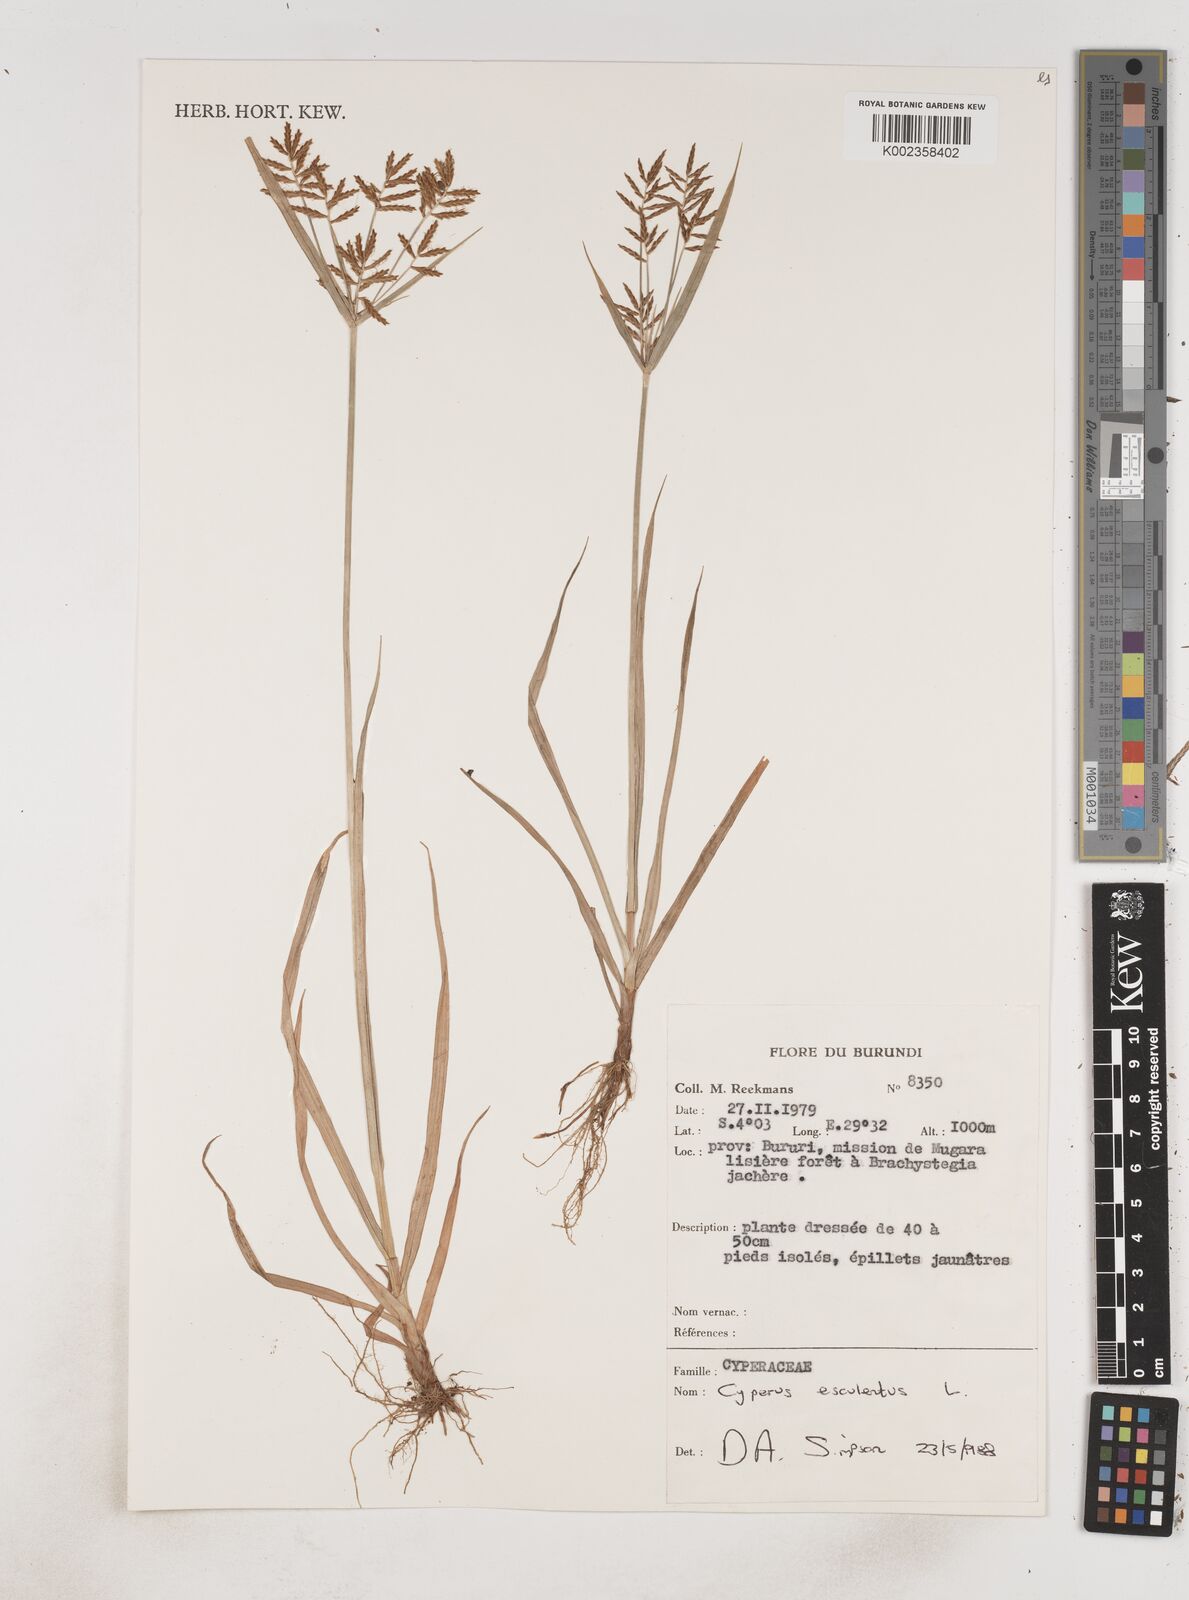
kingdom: Plantae
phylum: Tracheophyta
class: Liliopsida
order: Poales
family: Cyperaceae
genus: Cyperus
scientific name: Cyperus esculentus
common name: Yellow nutsedge
